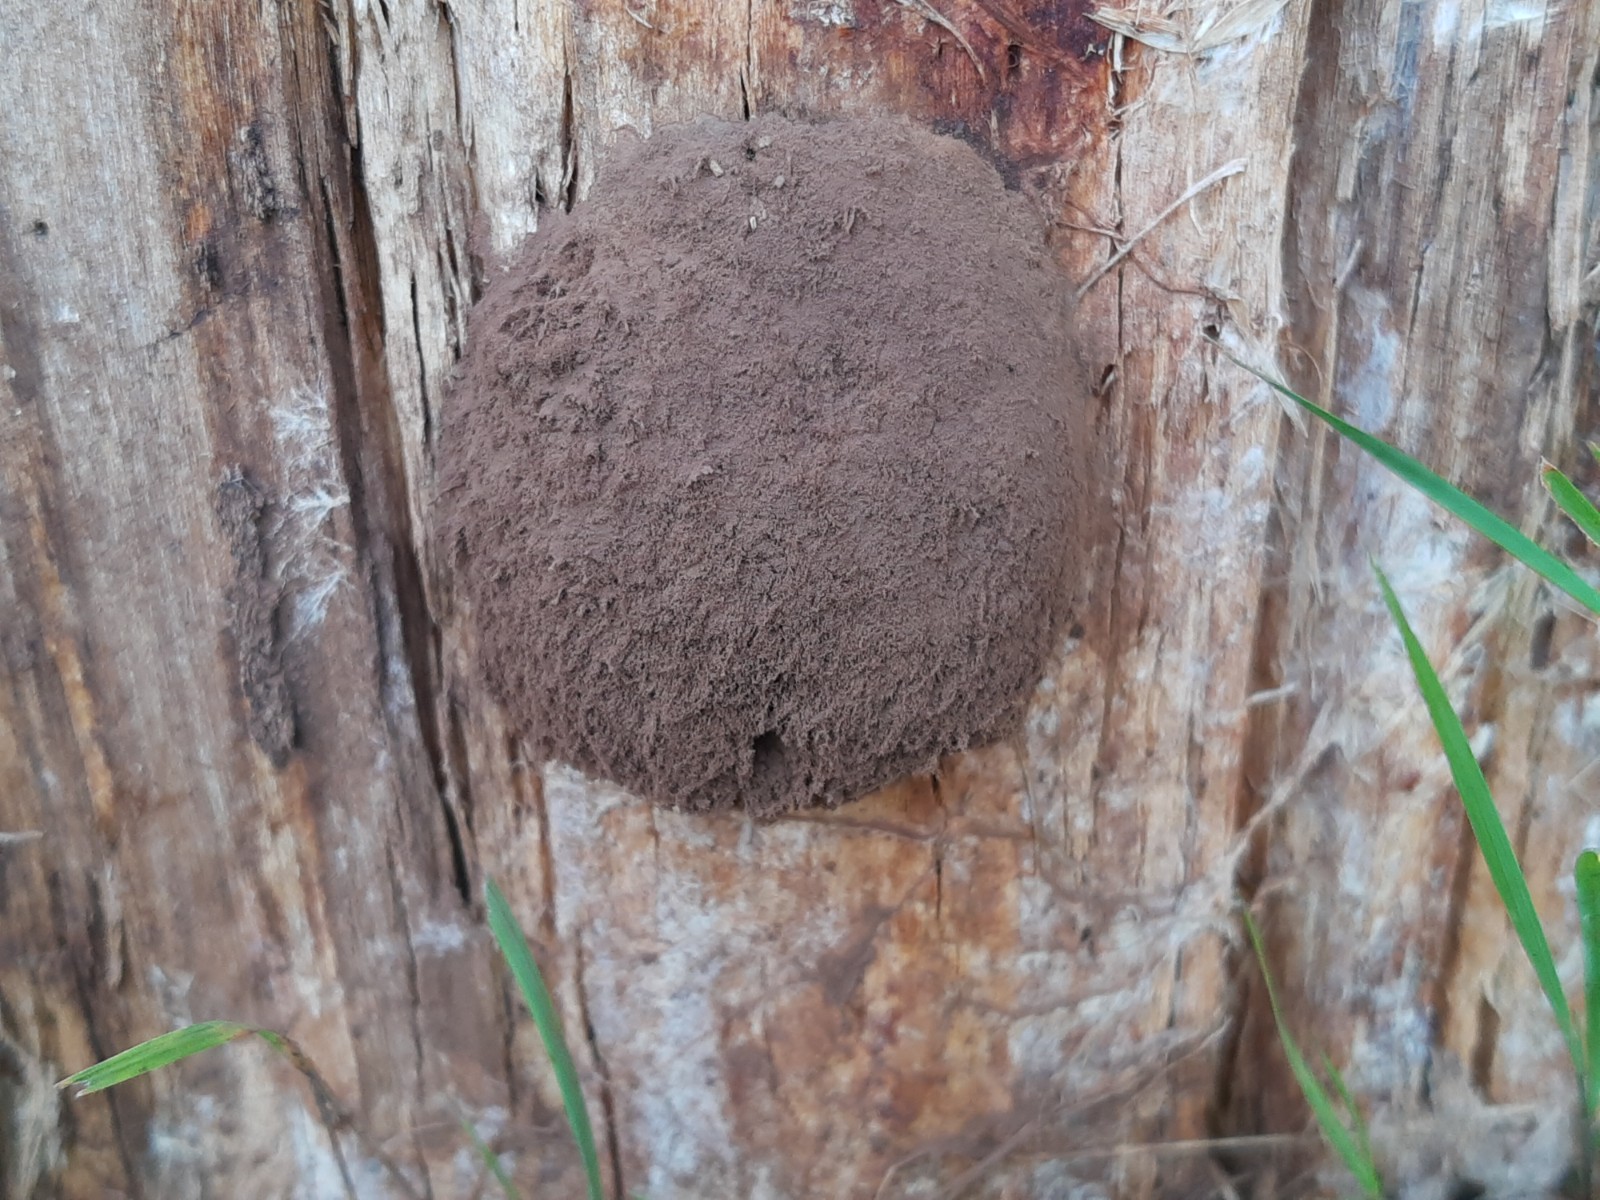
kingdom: Protozoa
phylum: Mycetozoa
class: Myxomycetes
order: Cribrariales
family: Tubiferaceae
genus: Reticularia
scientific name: Reticularia lycoperdon
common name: skinnende støvpude
